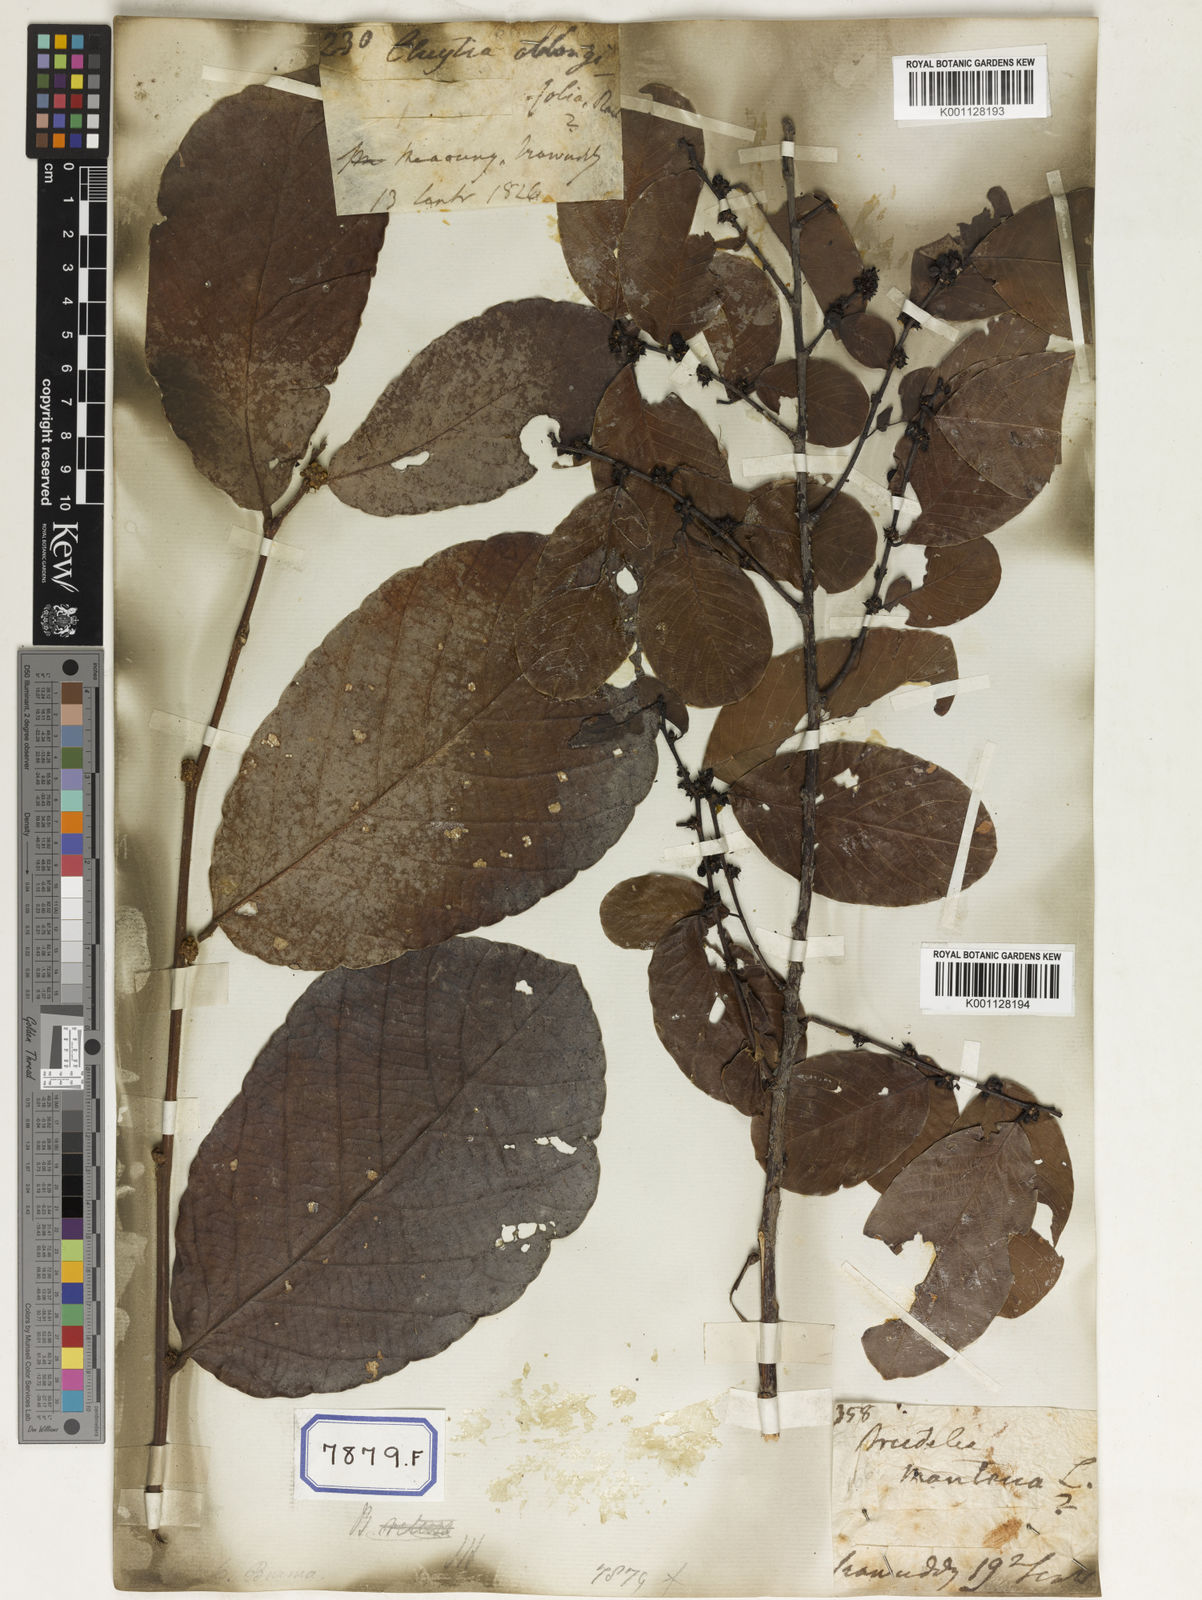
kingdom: Plantae
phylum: Tracheophyta
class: Magnoliopsida
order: Malpighiales
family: Phyllanthaceae
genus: Bridelia
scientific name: Bridelia montana
